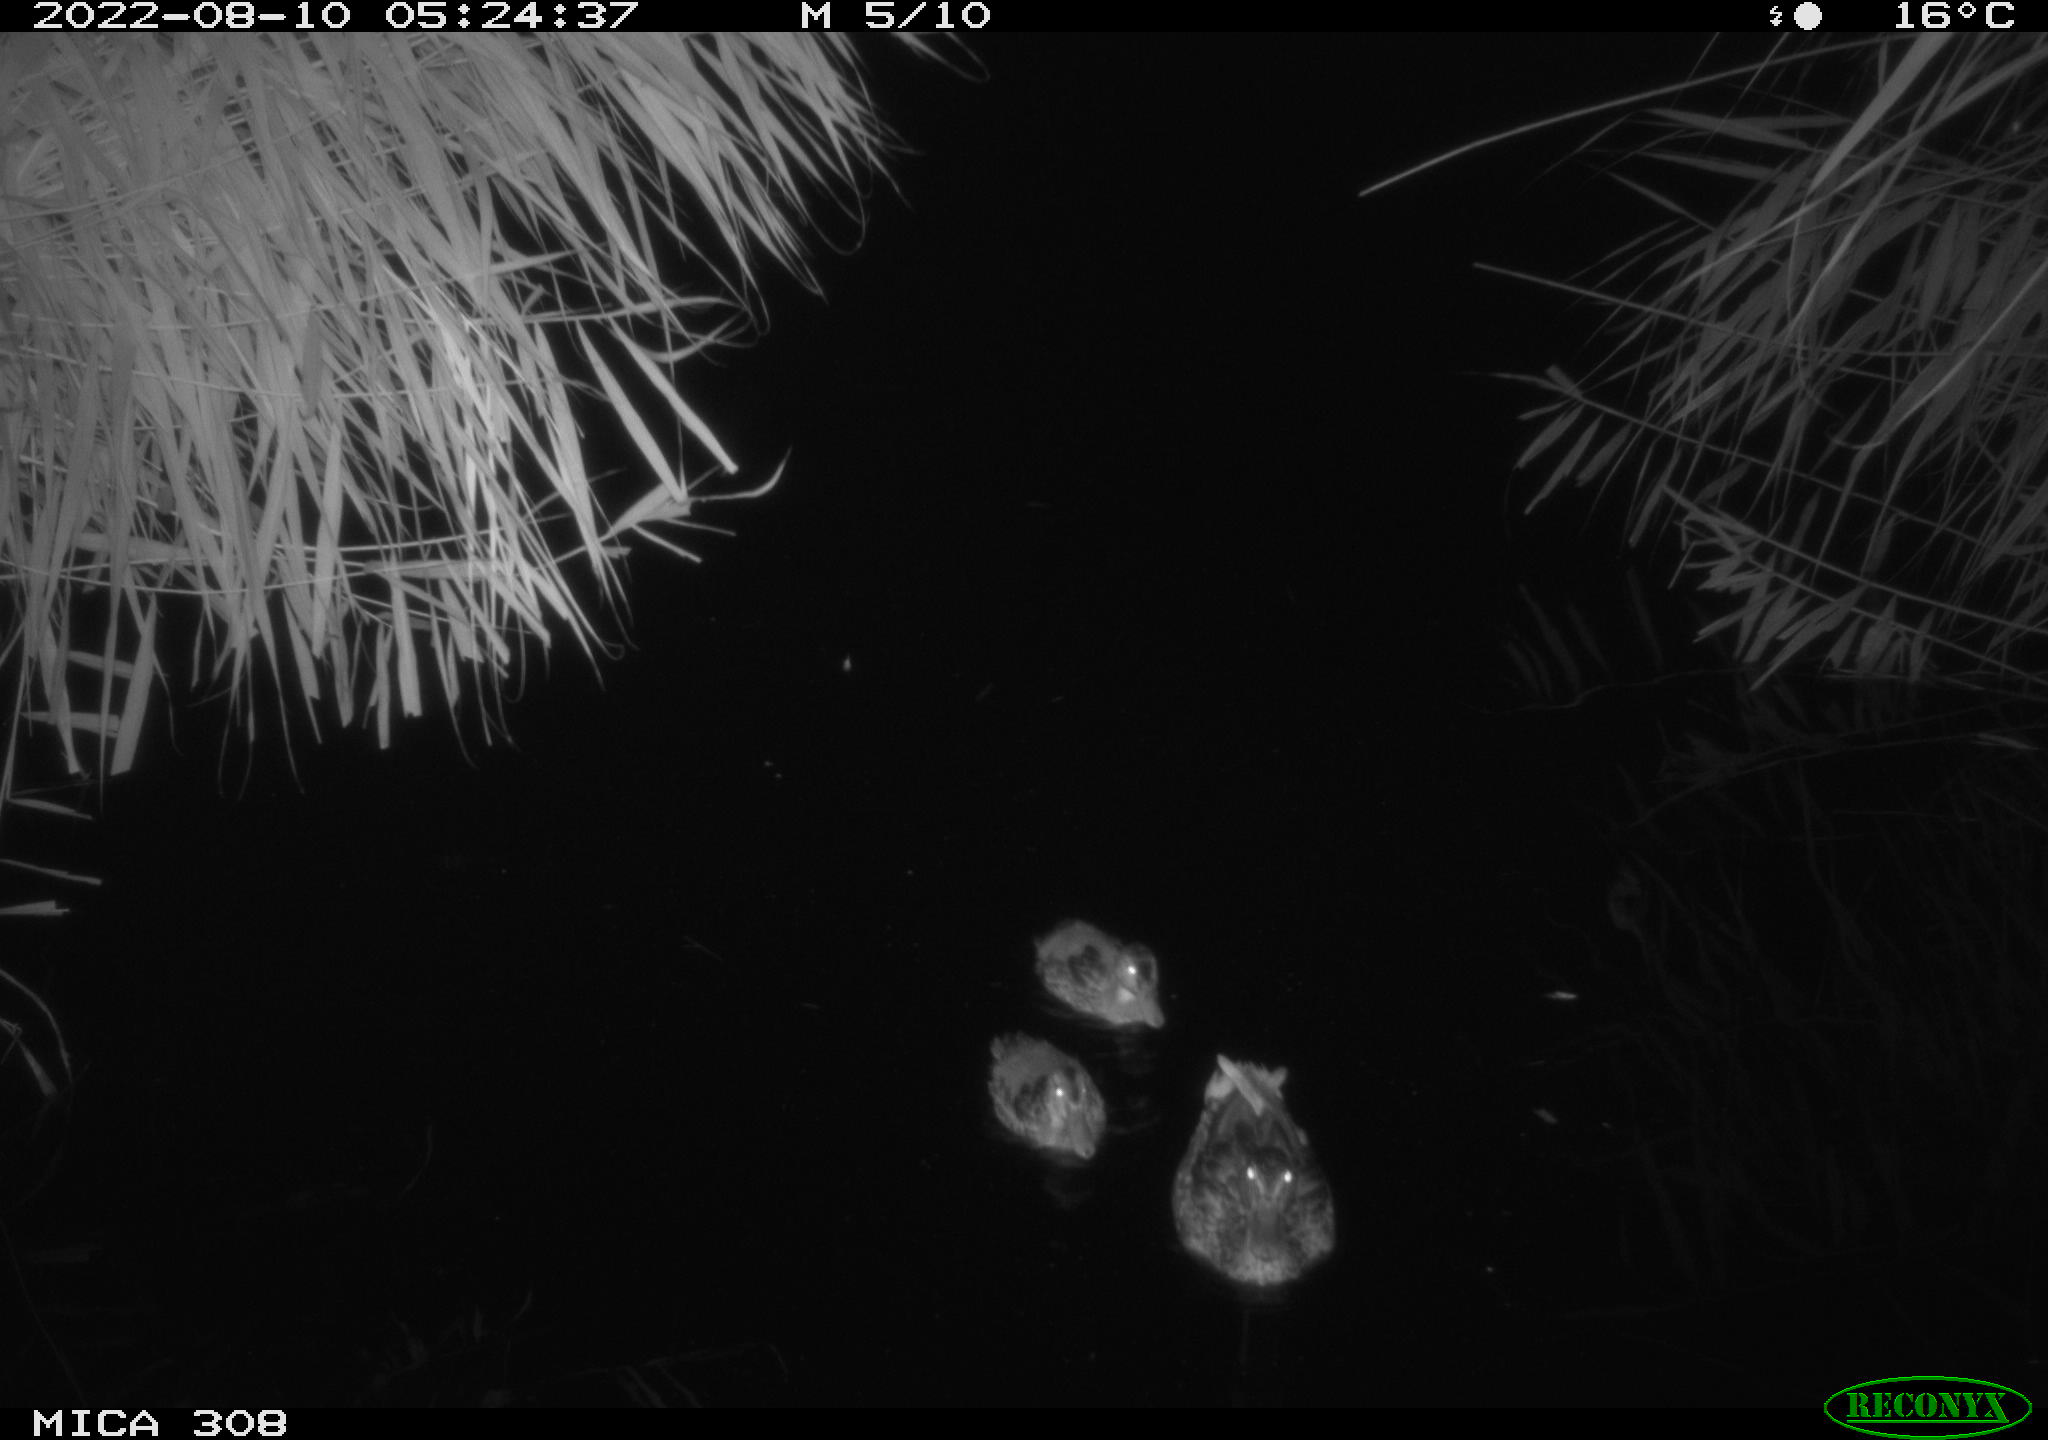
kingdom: Animalia
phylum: Chordata
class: Aves
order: Anseriformes
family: Anatidae
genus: Anas
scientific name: Anas platyrhynchos
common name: Mallard
